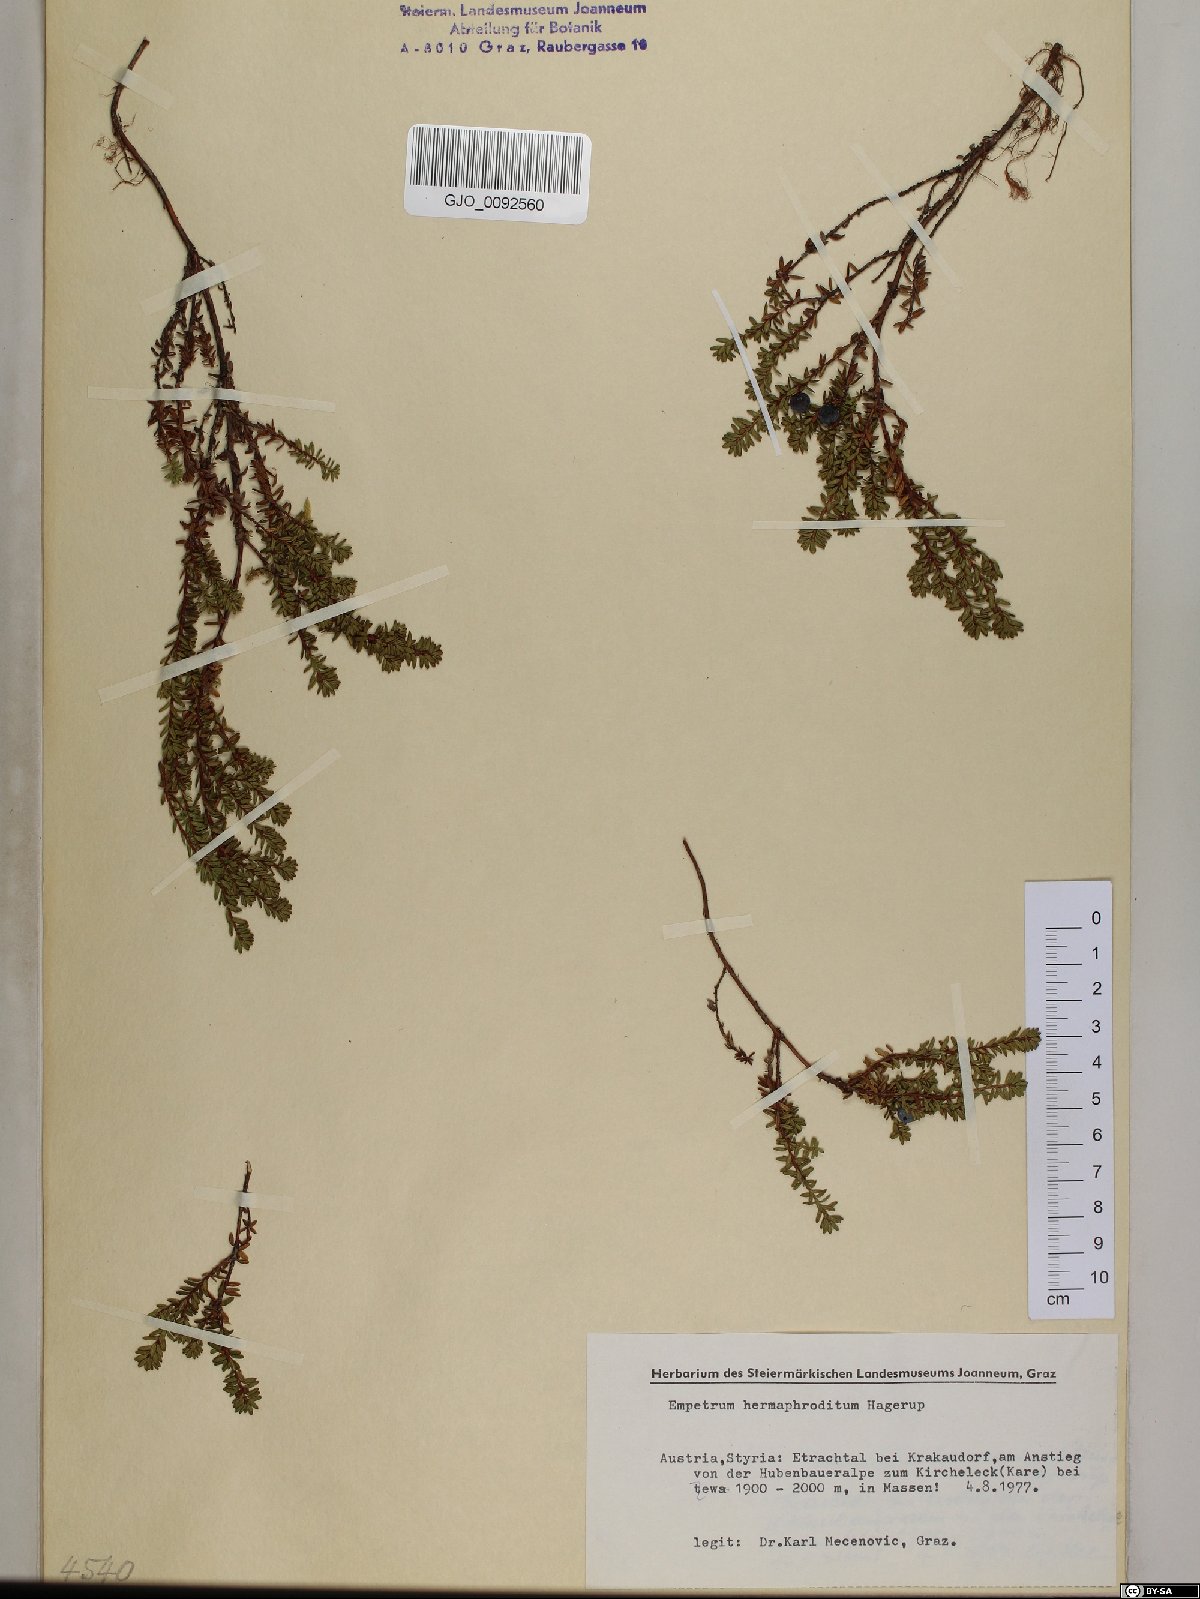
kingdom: Plantae
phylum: Tracheophyta
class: Magnoliopsida
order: Ericales
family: Ericaceae
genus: Empetrum
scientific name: Empetrum hermaphroditum
